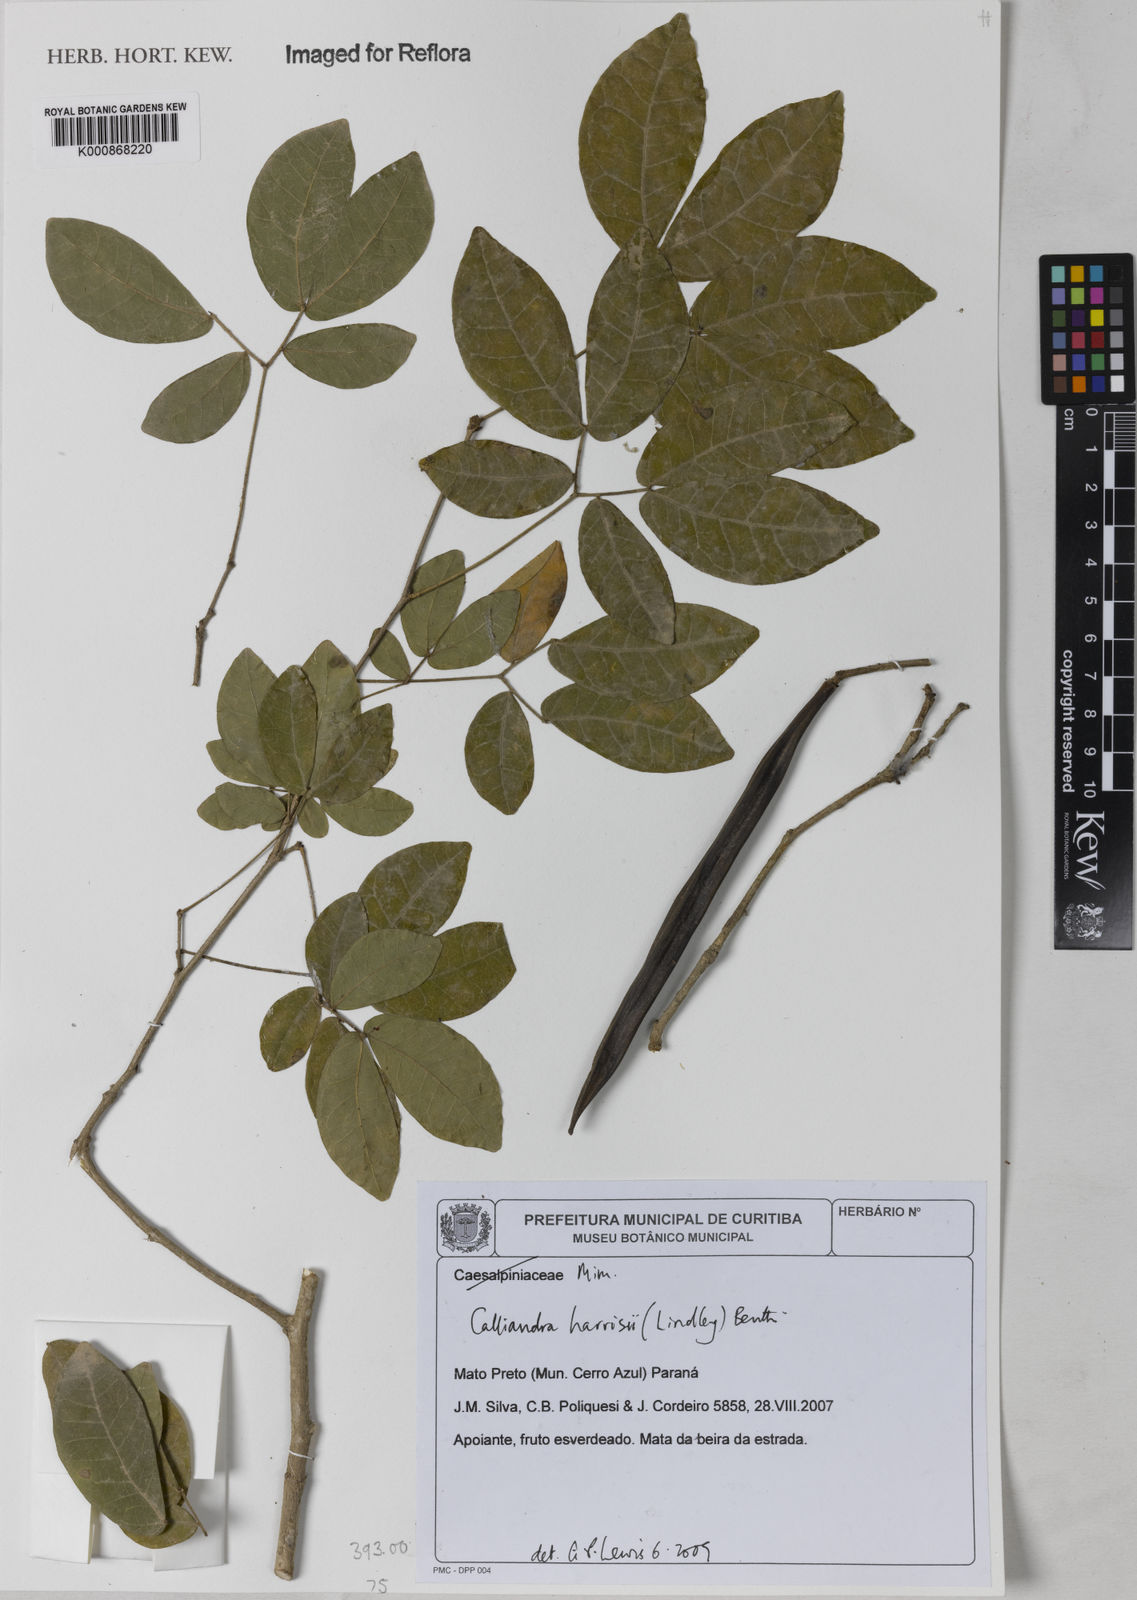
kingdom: Plantae
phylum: Tracheophyta
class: Magnoliopsida
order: Fabales
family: Fabaceae
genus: Calliandra
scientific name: Calliandra harrisii
